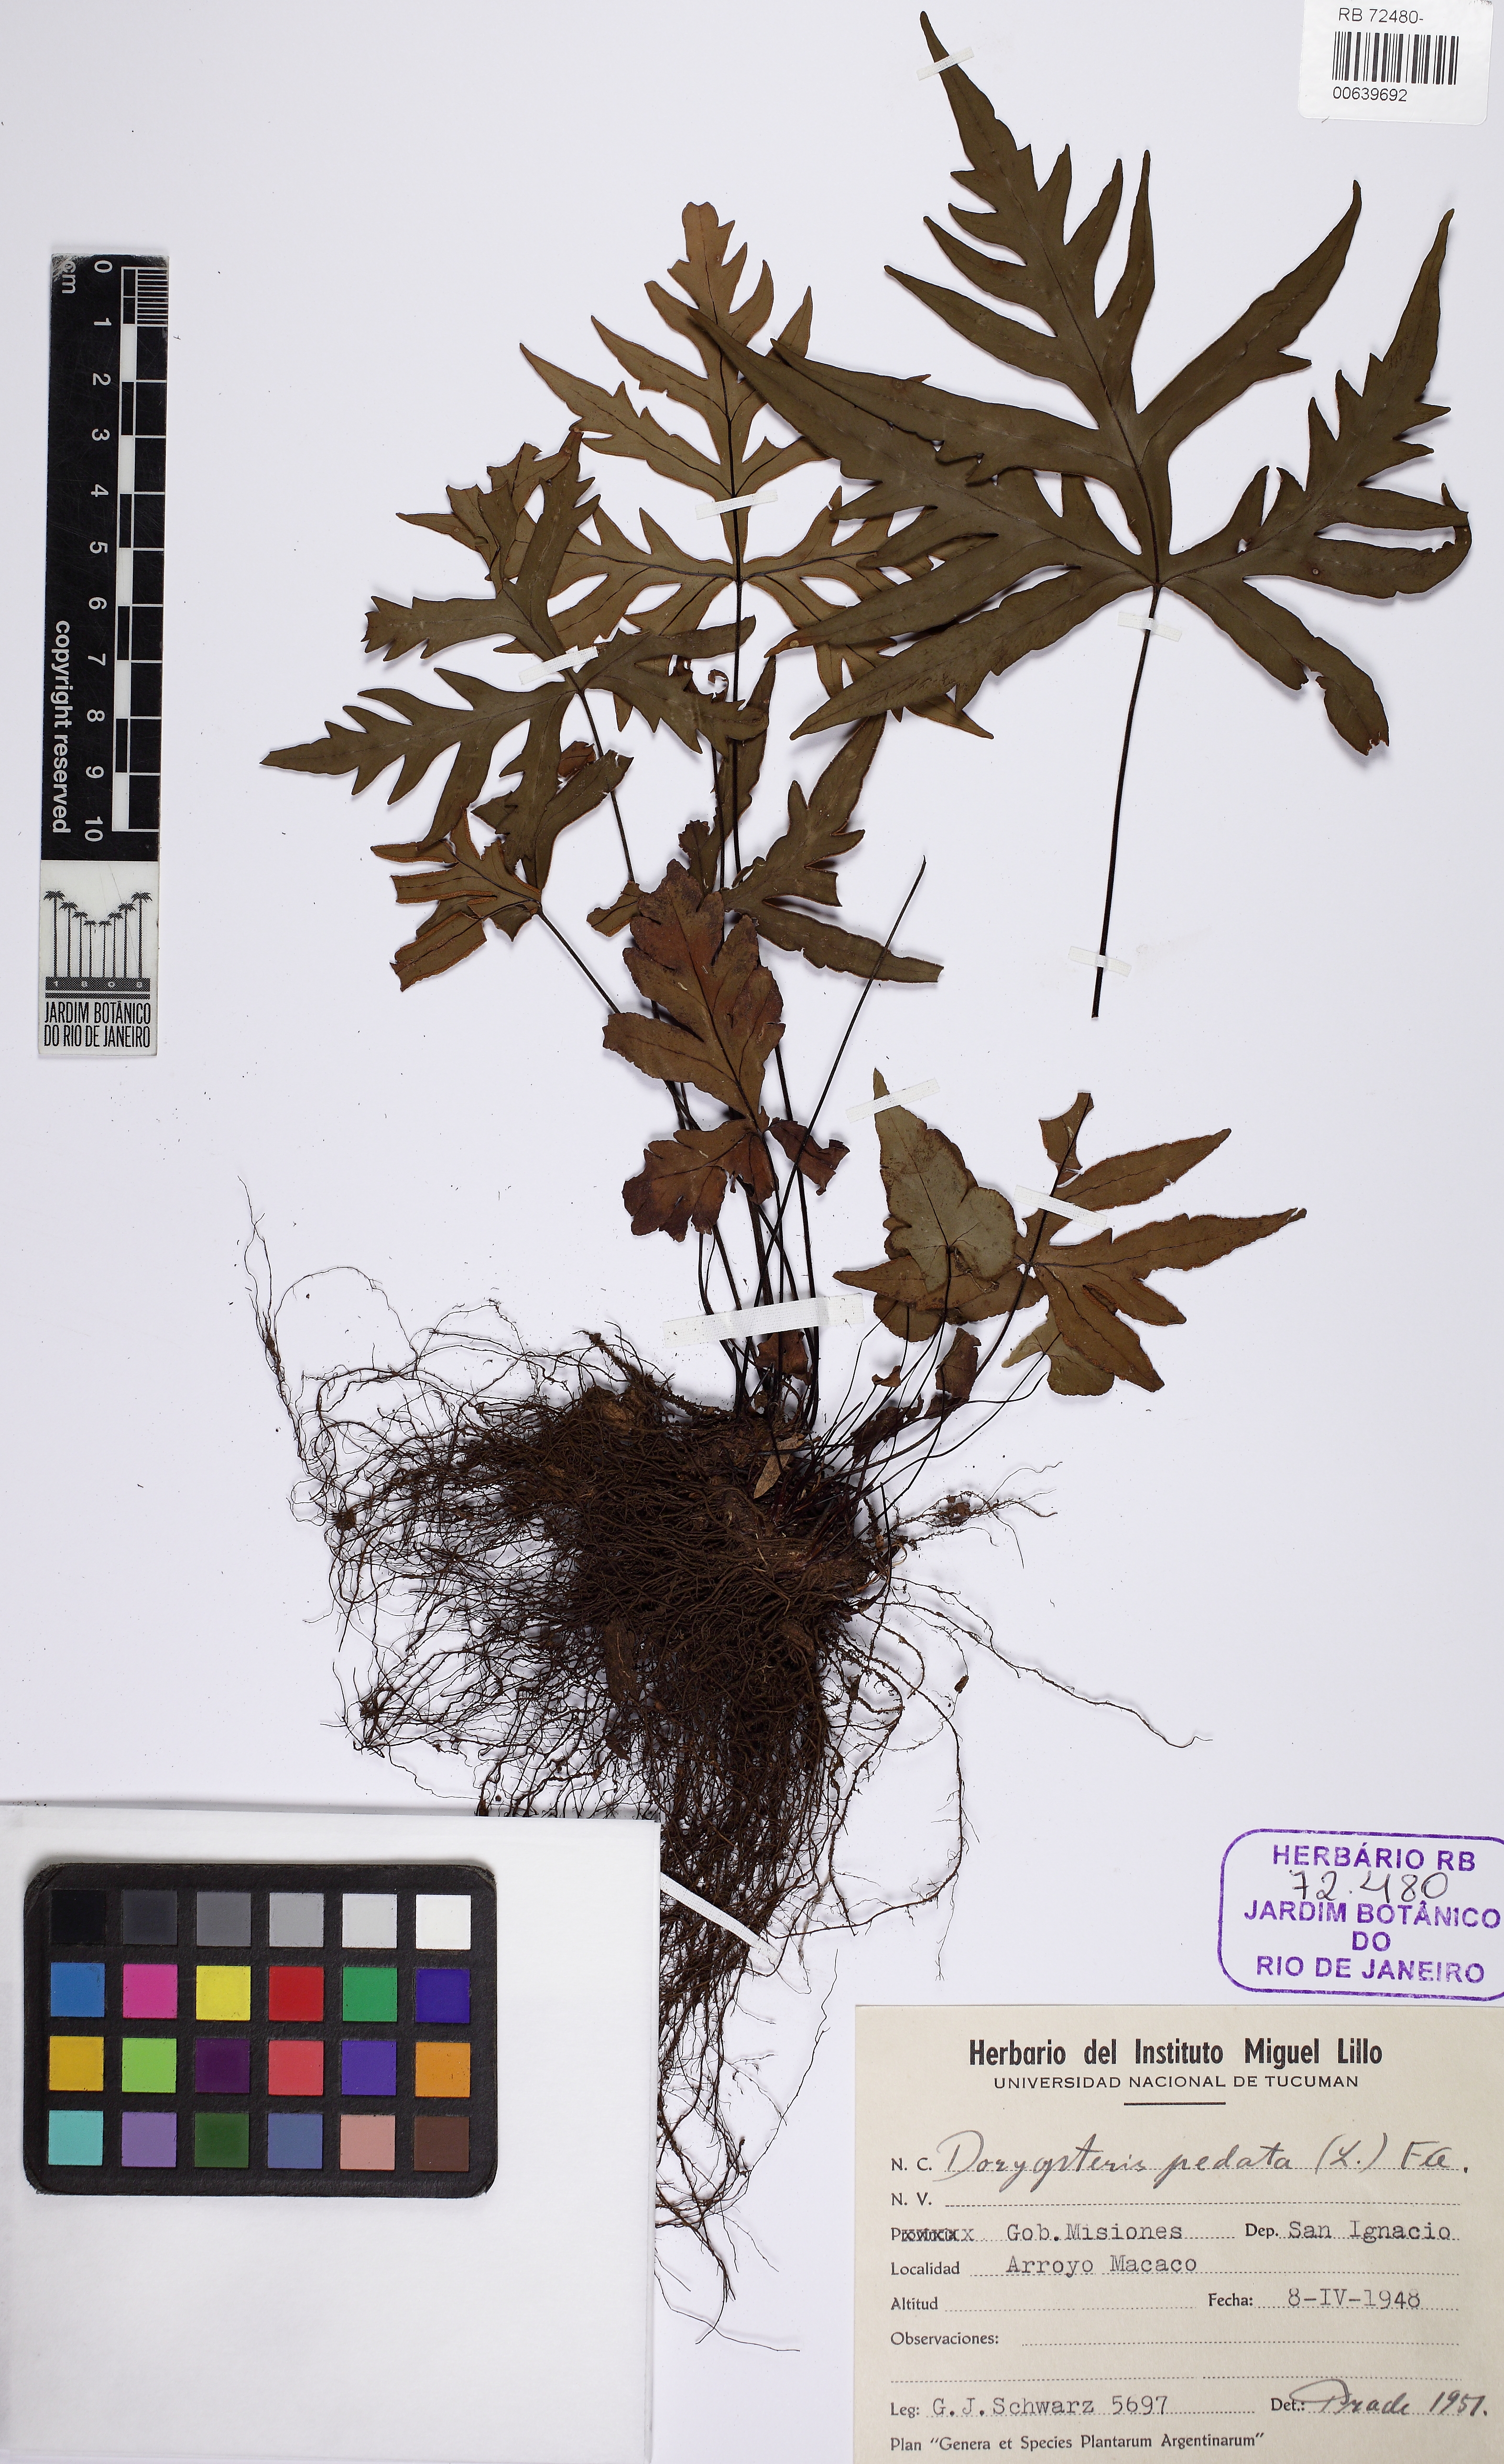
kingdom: Plantae
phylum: Tracheophyta
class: Polypodiopsida
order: Polypodiales
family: Pteridaceae
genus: Doryopteris
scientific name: Doryopteris pentagona
